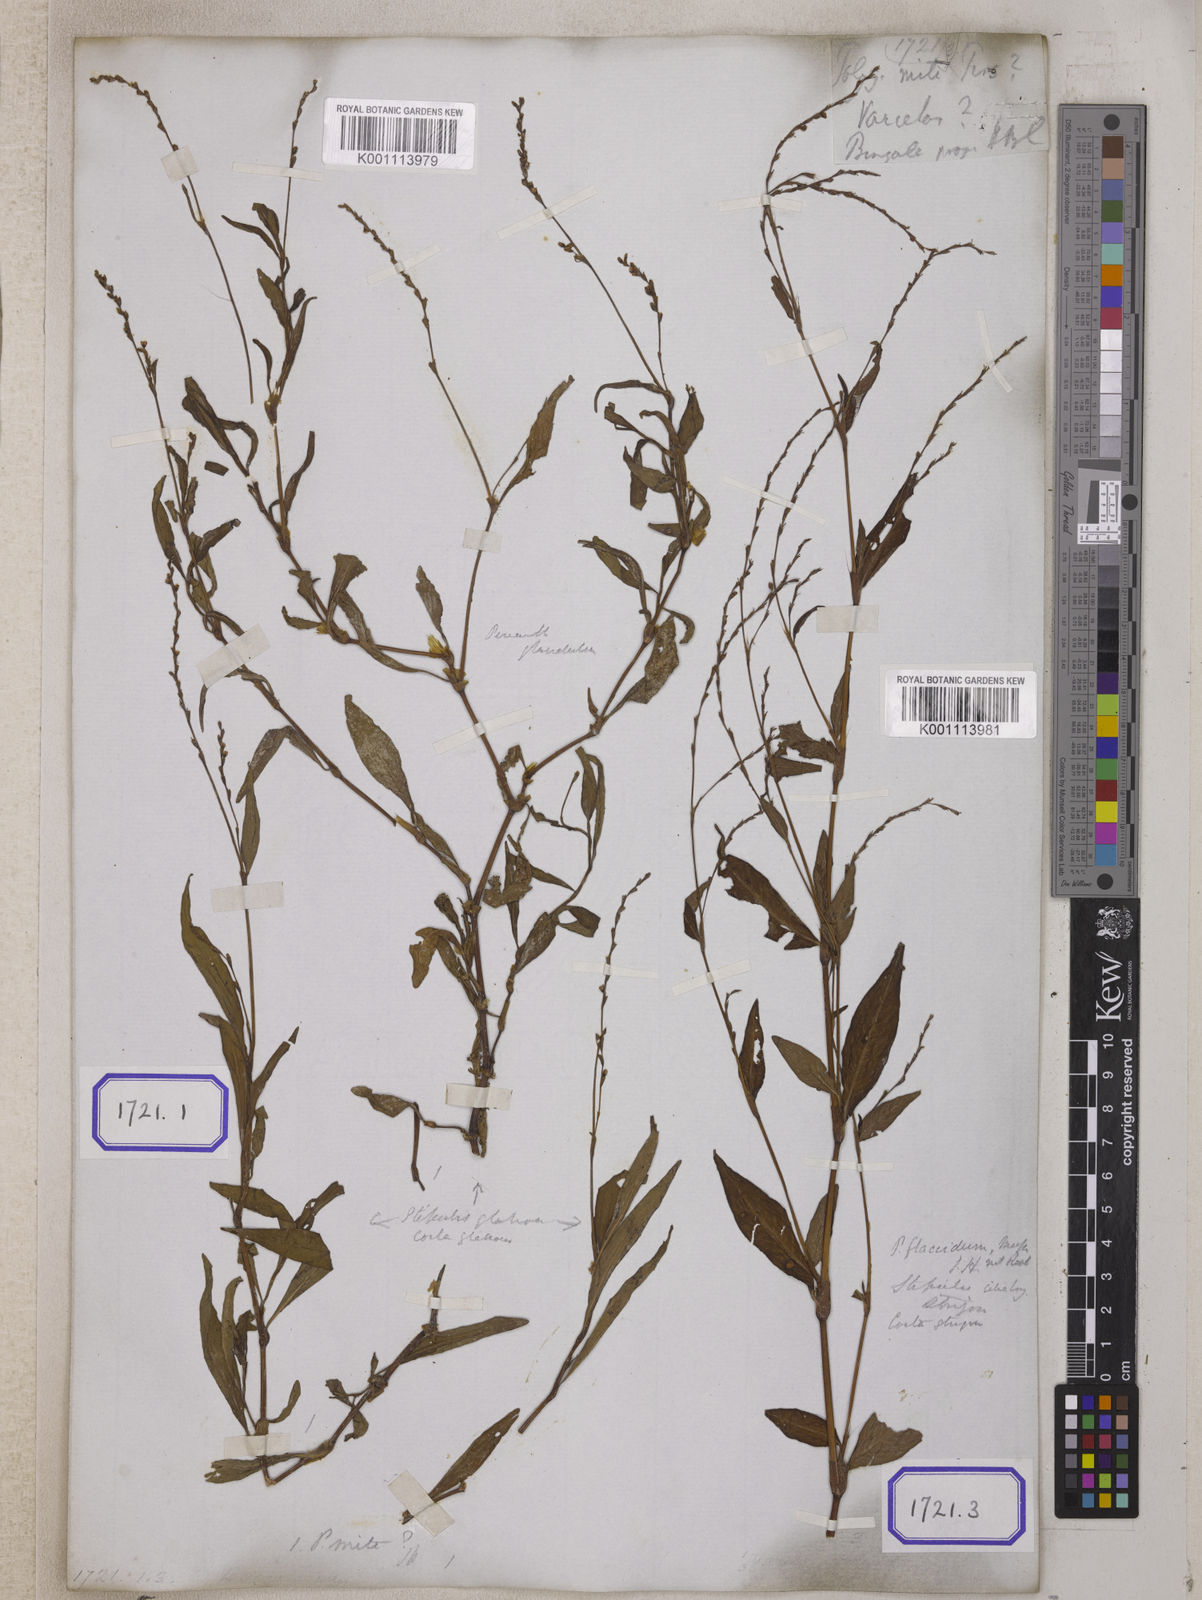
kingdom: Plantae
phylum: Tracheophyta
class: Magnoliopsida
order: Caryophyllales
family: Polygonaceae
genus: Persicaria
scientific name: Persicaria hydropiperoides
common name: Swamp smartweed
